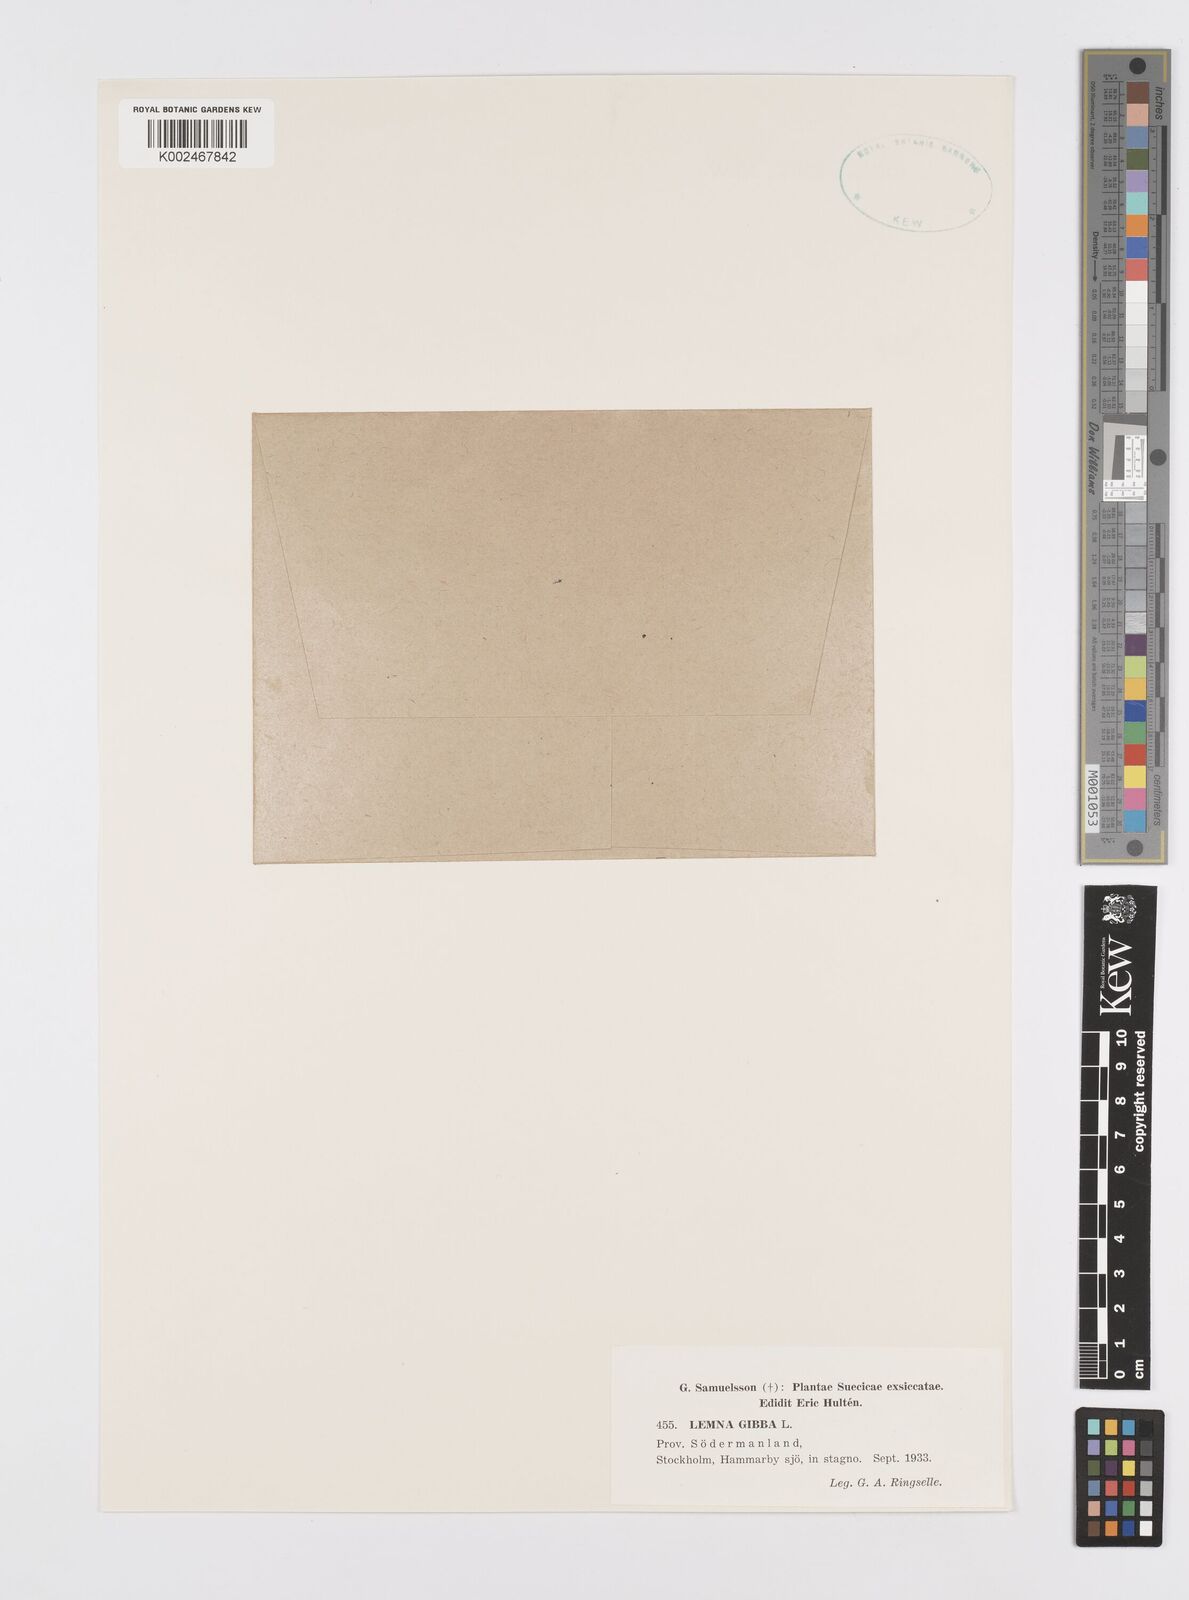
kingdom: Plantae
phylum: Tracheophyta
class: Liliopsida
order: Alismatales
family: Araceae
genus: Lemna
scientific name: Lemna gibba
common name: Fat duckweed
